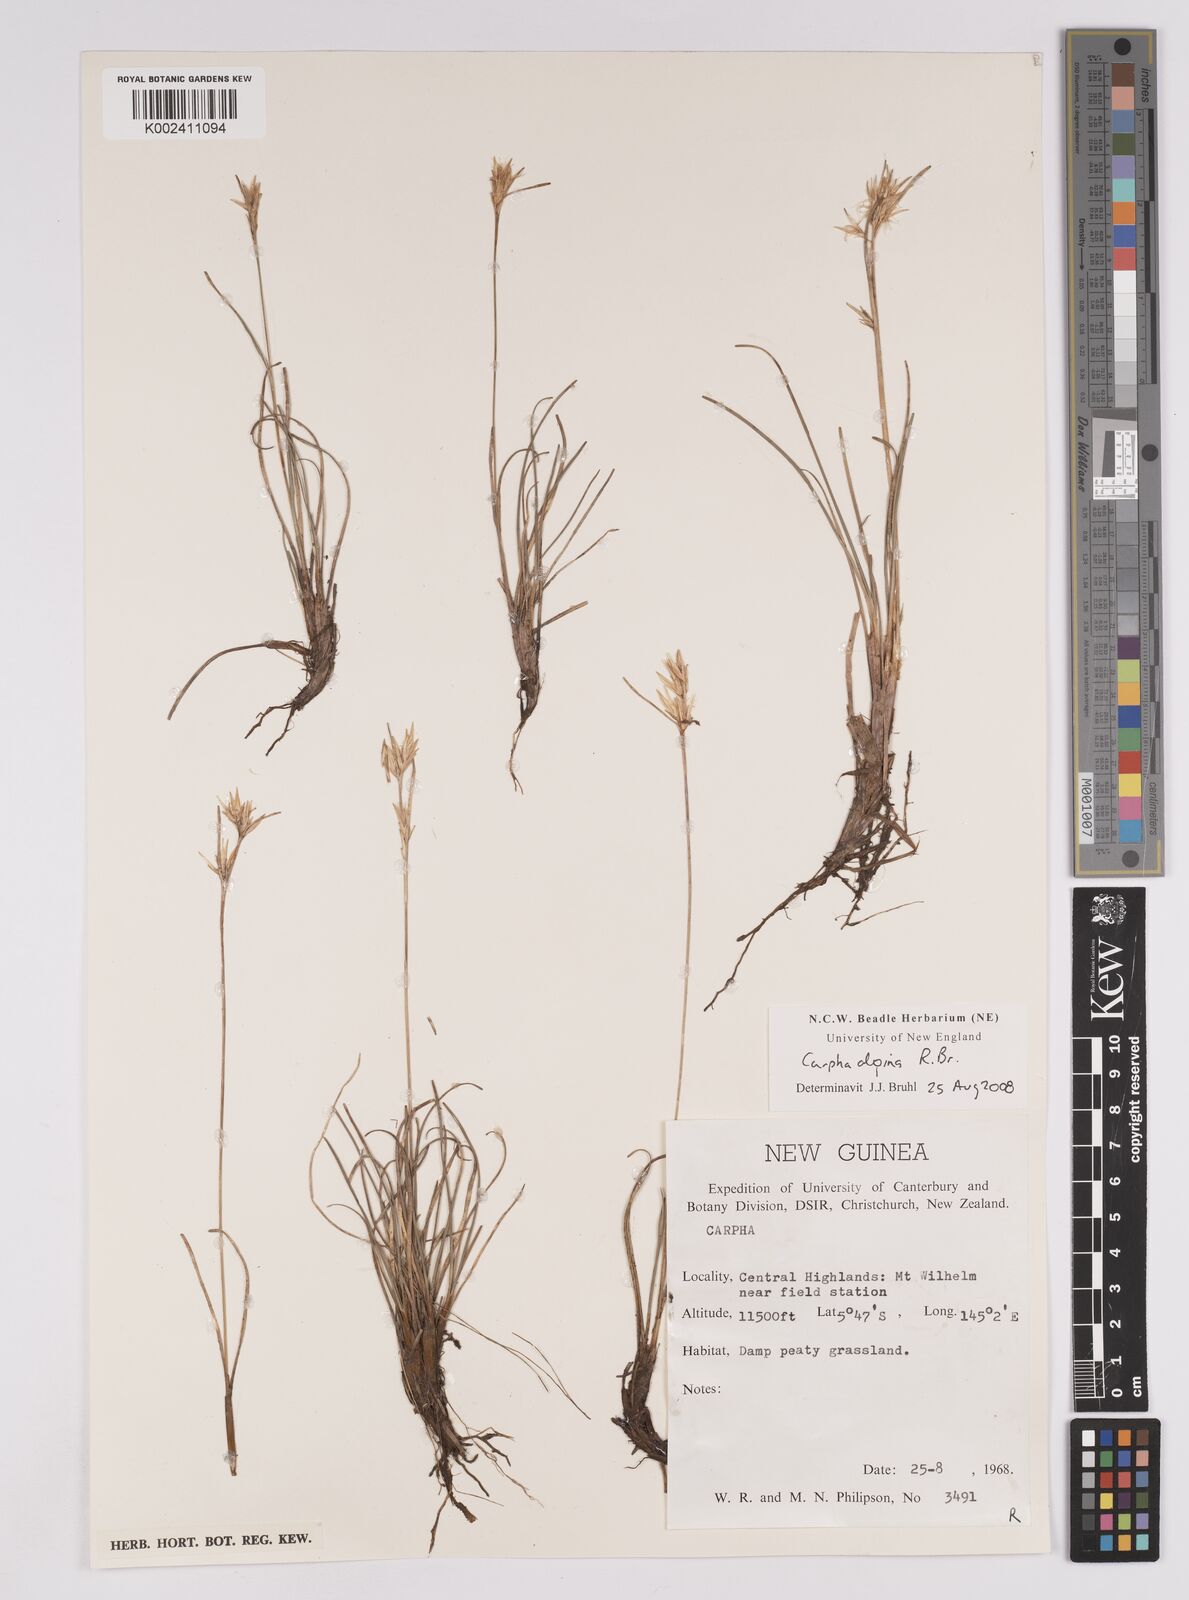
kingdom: Plantae
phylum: Tracheophyta
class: Liliopsida
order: Poales
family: Cyperaceae
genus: Carpha
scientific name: Carpha alpina
